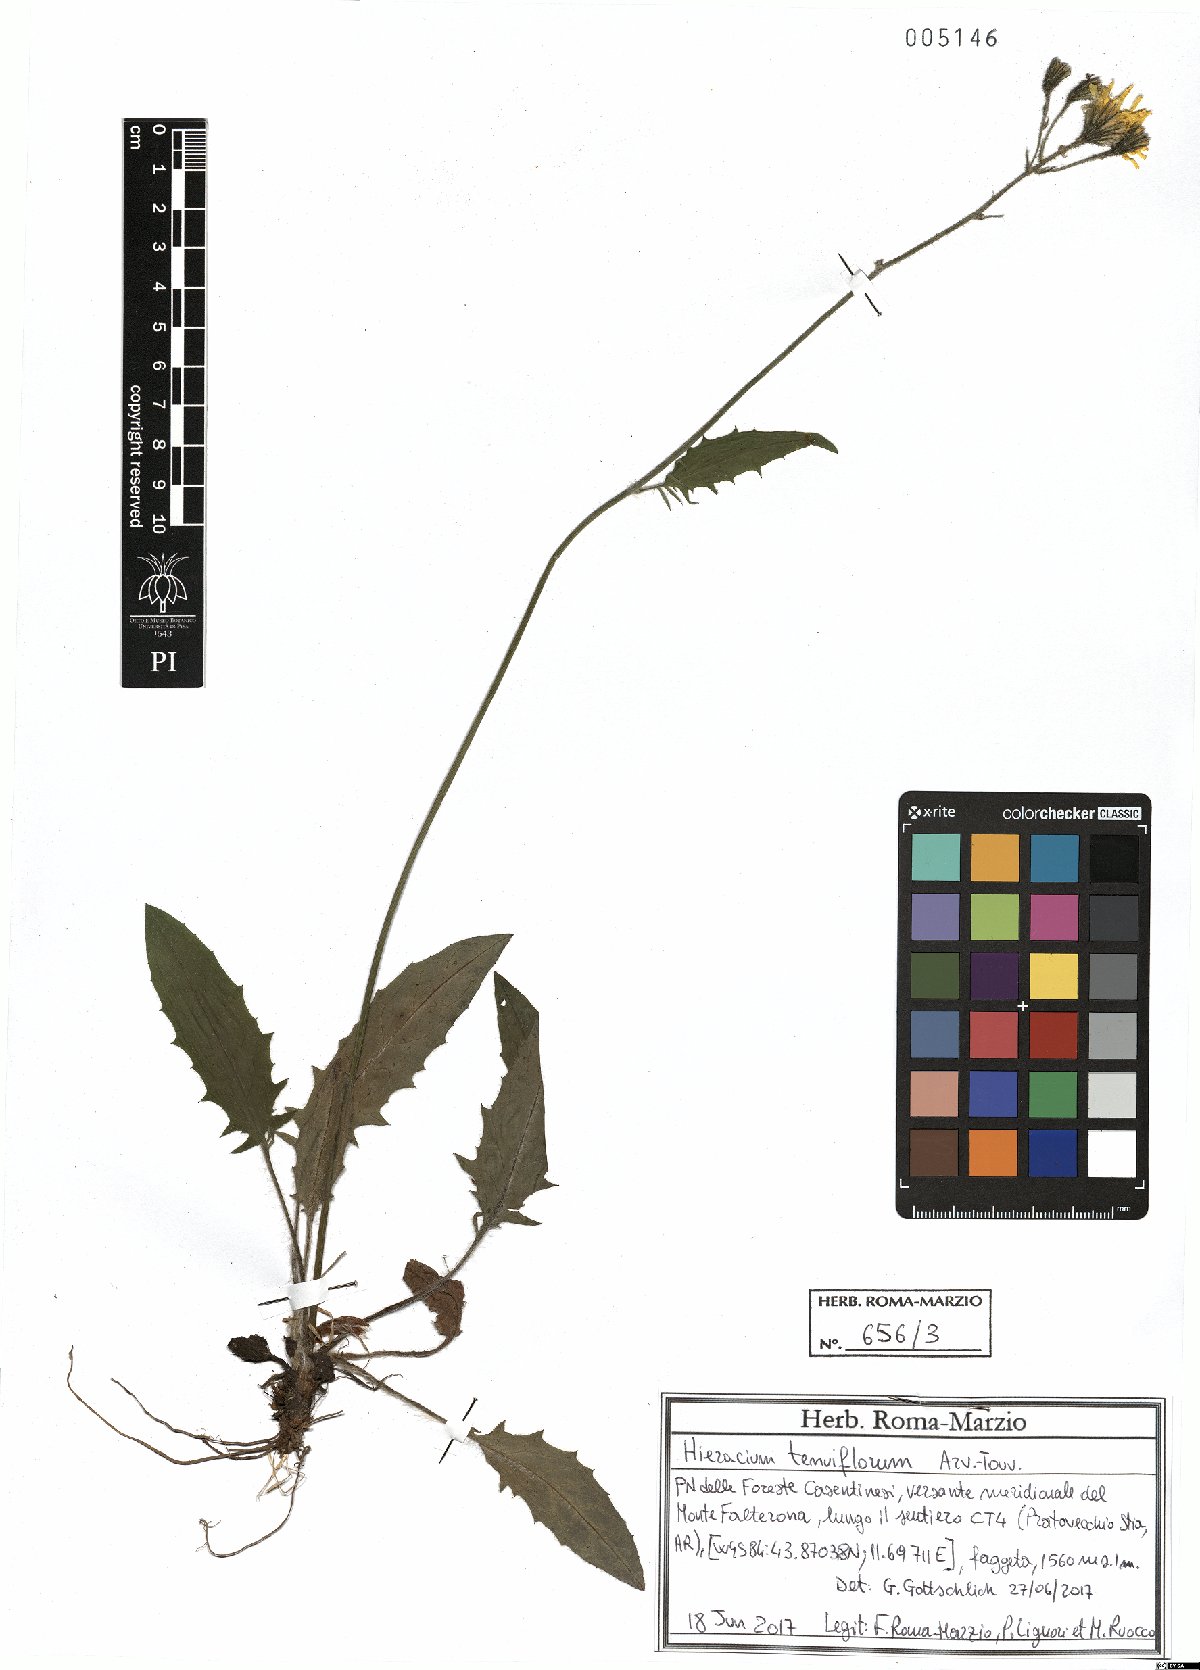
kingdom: Plantae
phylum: Tracheophyta
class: Magnoliopsida
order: Asterales
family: Asteraceae
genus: Hieracium
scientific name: Hieracium tenuiflorum
